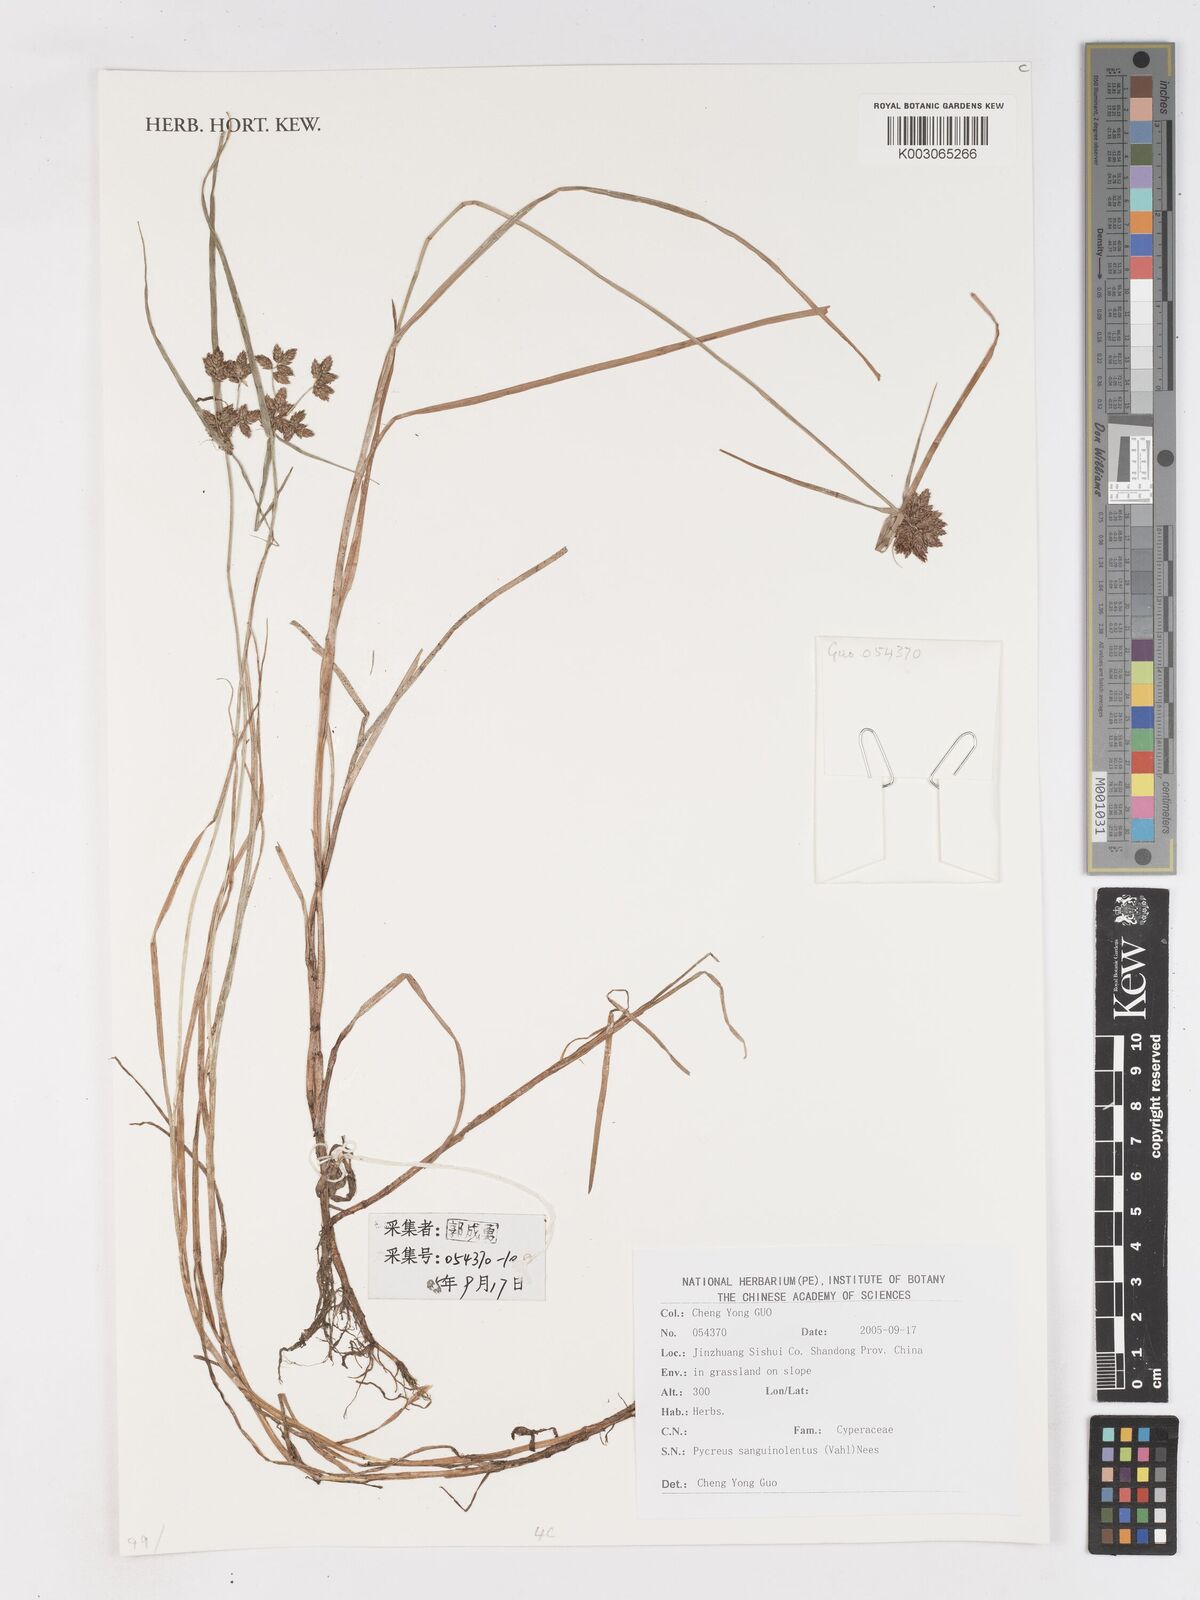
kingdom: Plantae
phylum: Tracheophyta
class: Liliopsida
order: Poales
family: Cyperaceae
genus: Cyperus
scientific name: Cyperus sanguinolentus
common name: Purpleglume flatsedge
